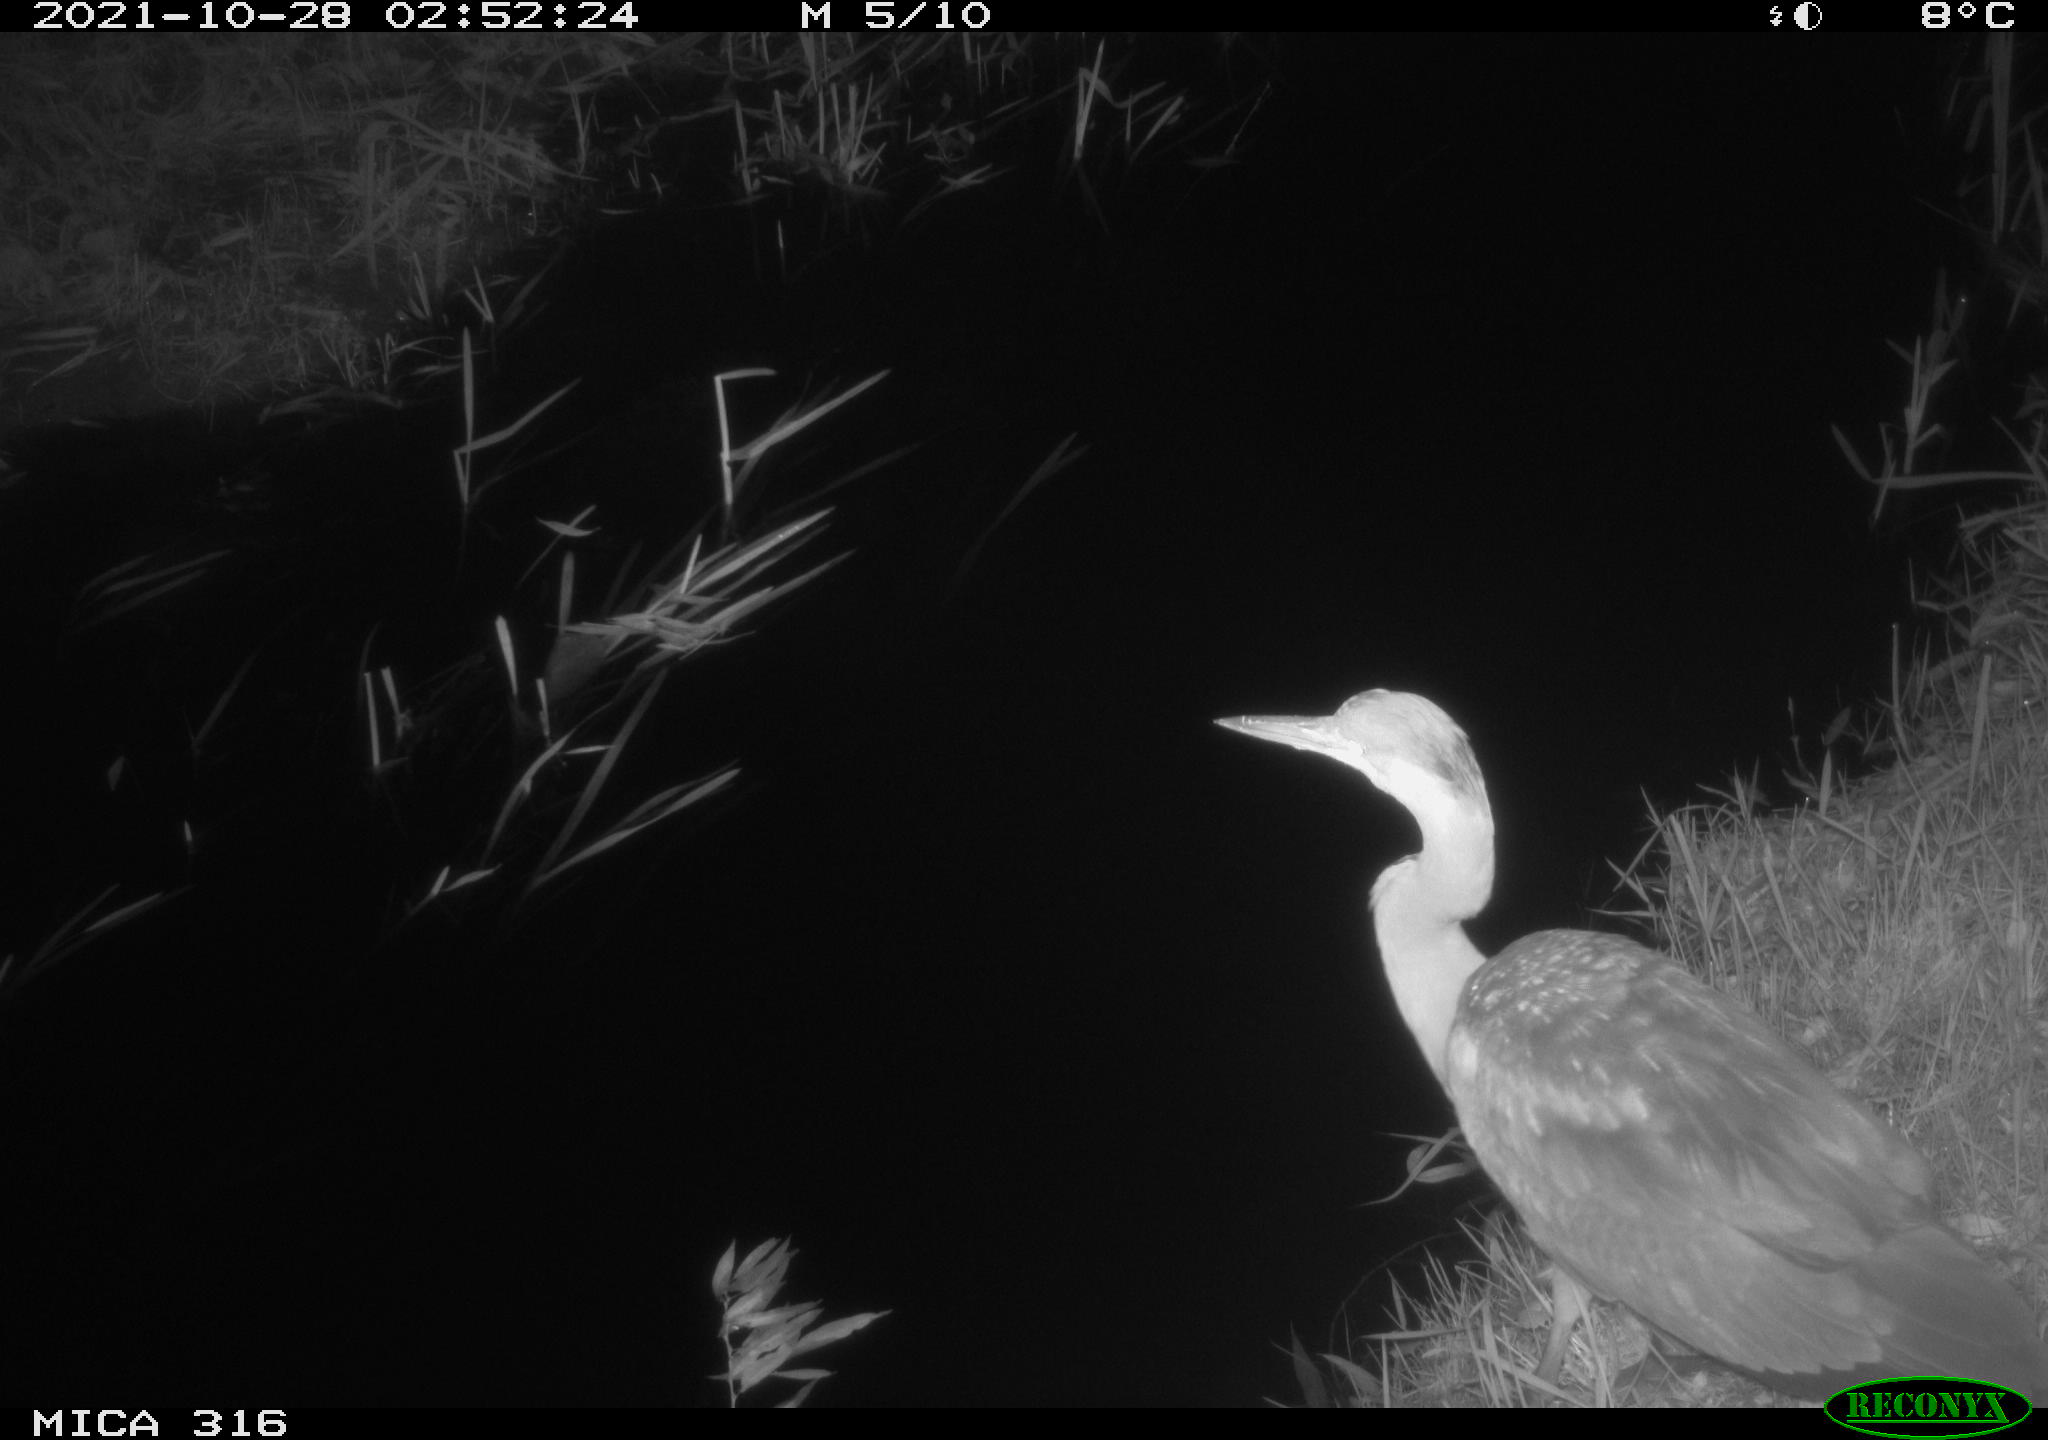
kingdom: Animalia
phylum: Chordata
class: Aves
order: Pelecaniformes
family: Ardeidae
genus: Ardea
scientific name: Ardea
